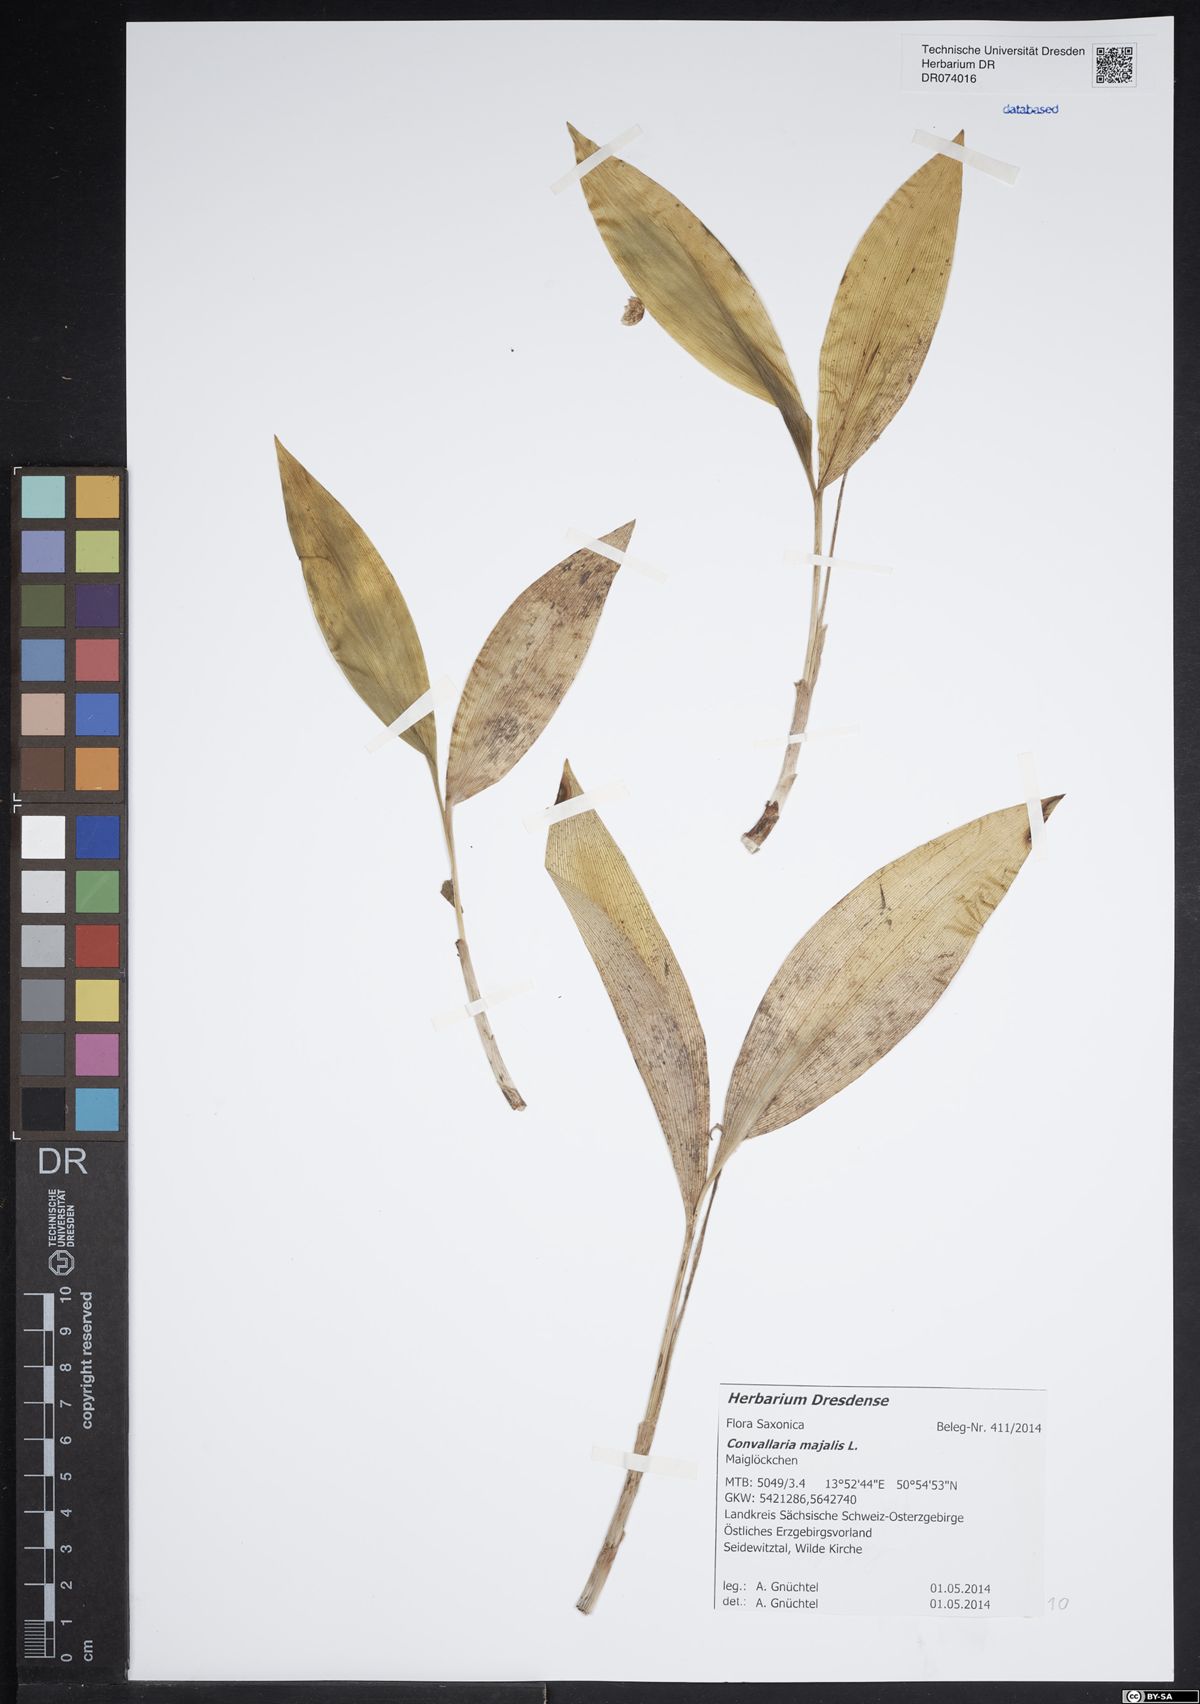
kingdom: Plantae
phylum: Tracheophyta
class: Liliopsida
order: Asparagales
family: Asparagaceae
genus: Convallaria
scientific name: Convallaria majalis
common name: Lily-of-the-valley
